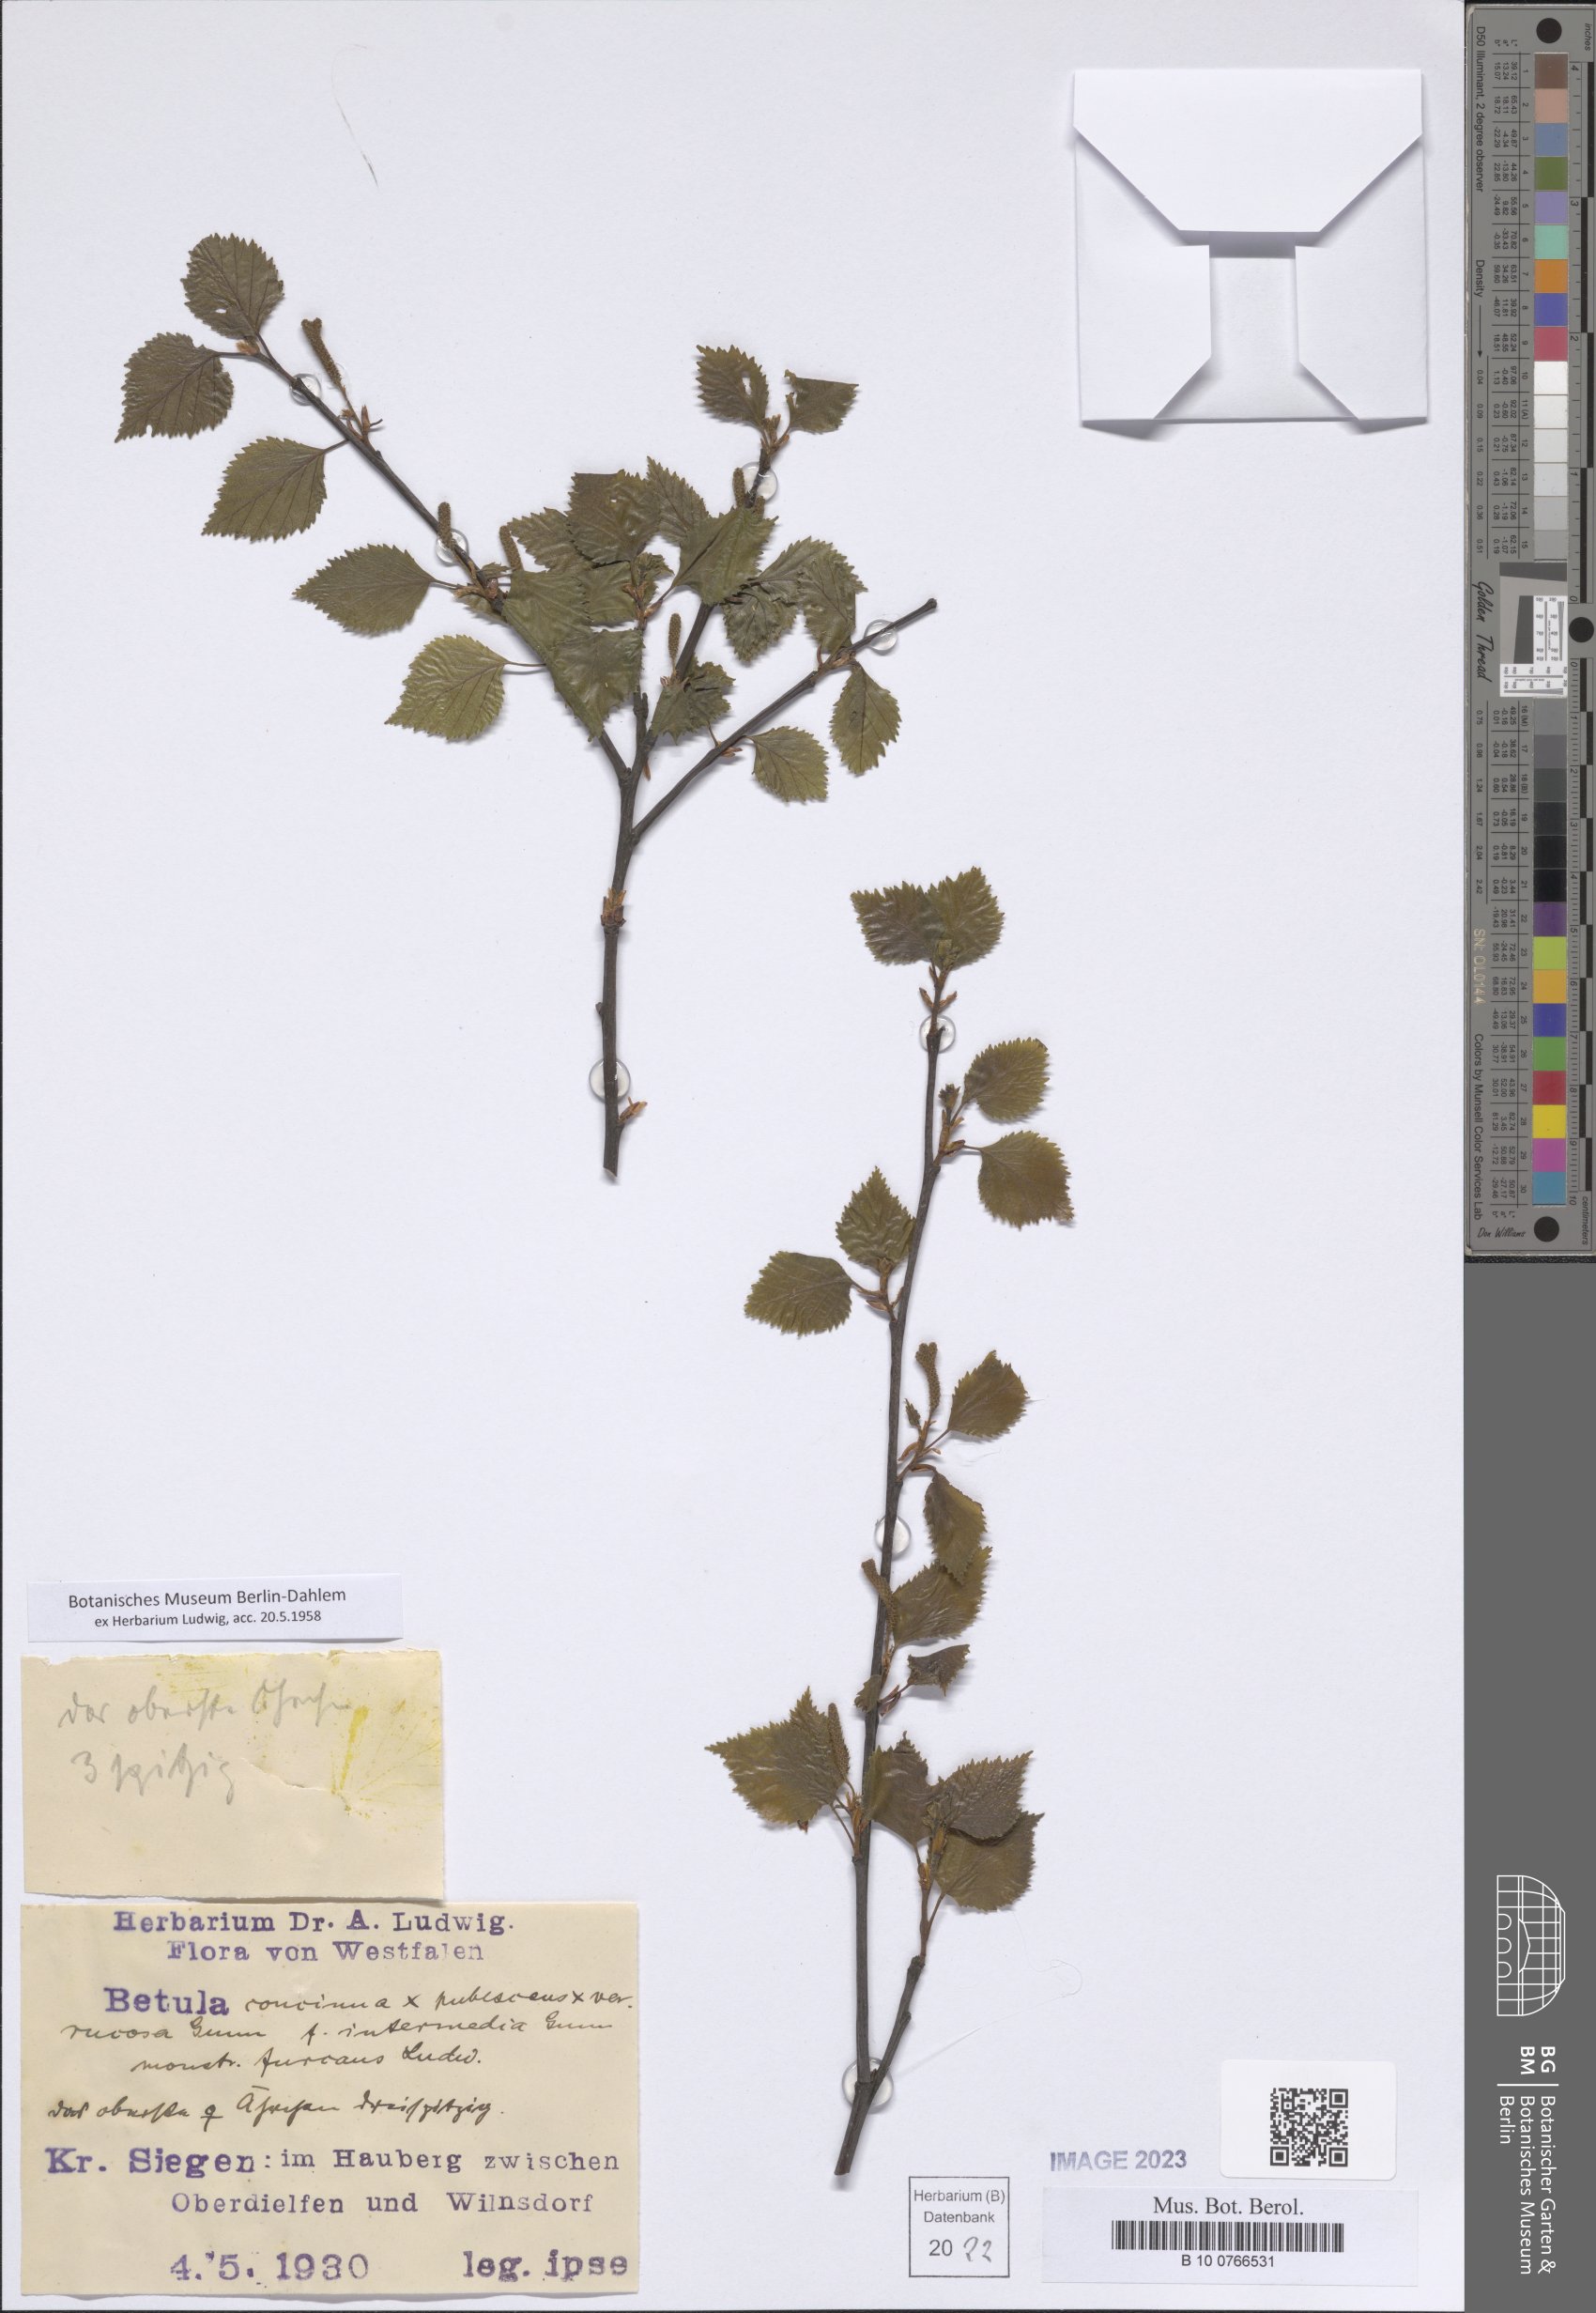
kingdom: Plantae
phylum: Tracheophyta
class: Magnoliopsida
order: Fagales
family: Betulaceae
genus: Betula
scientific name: Betula
